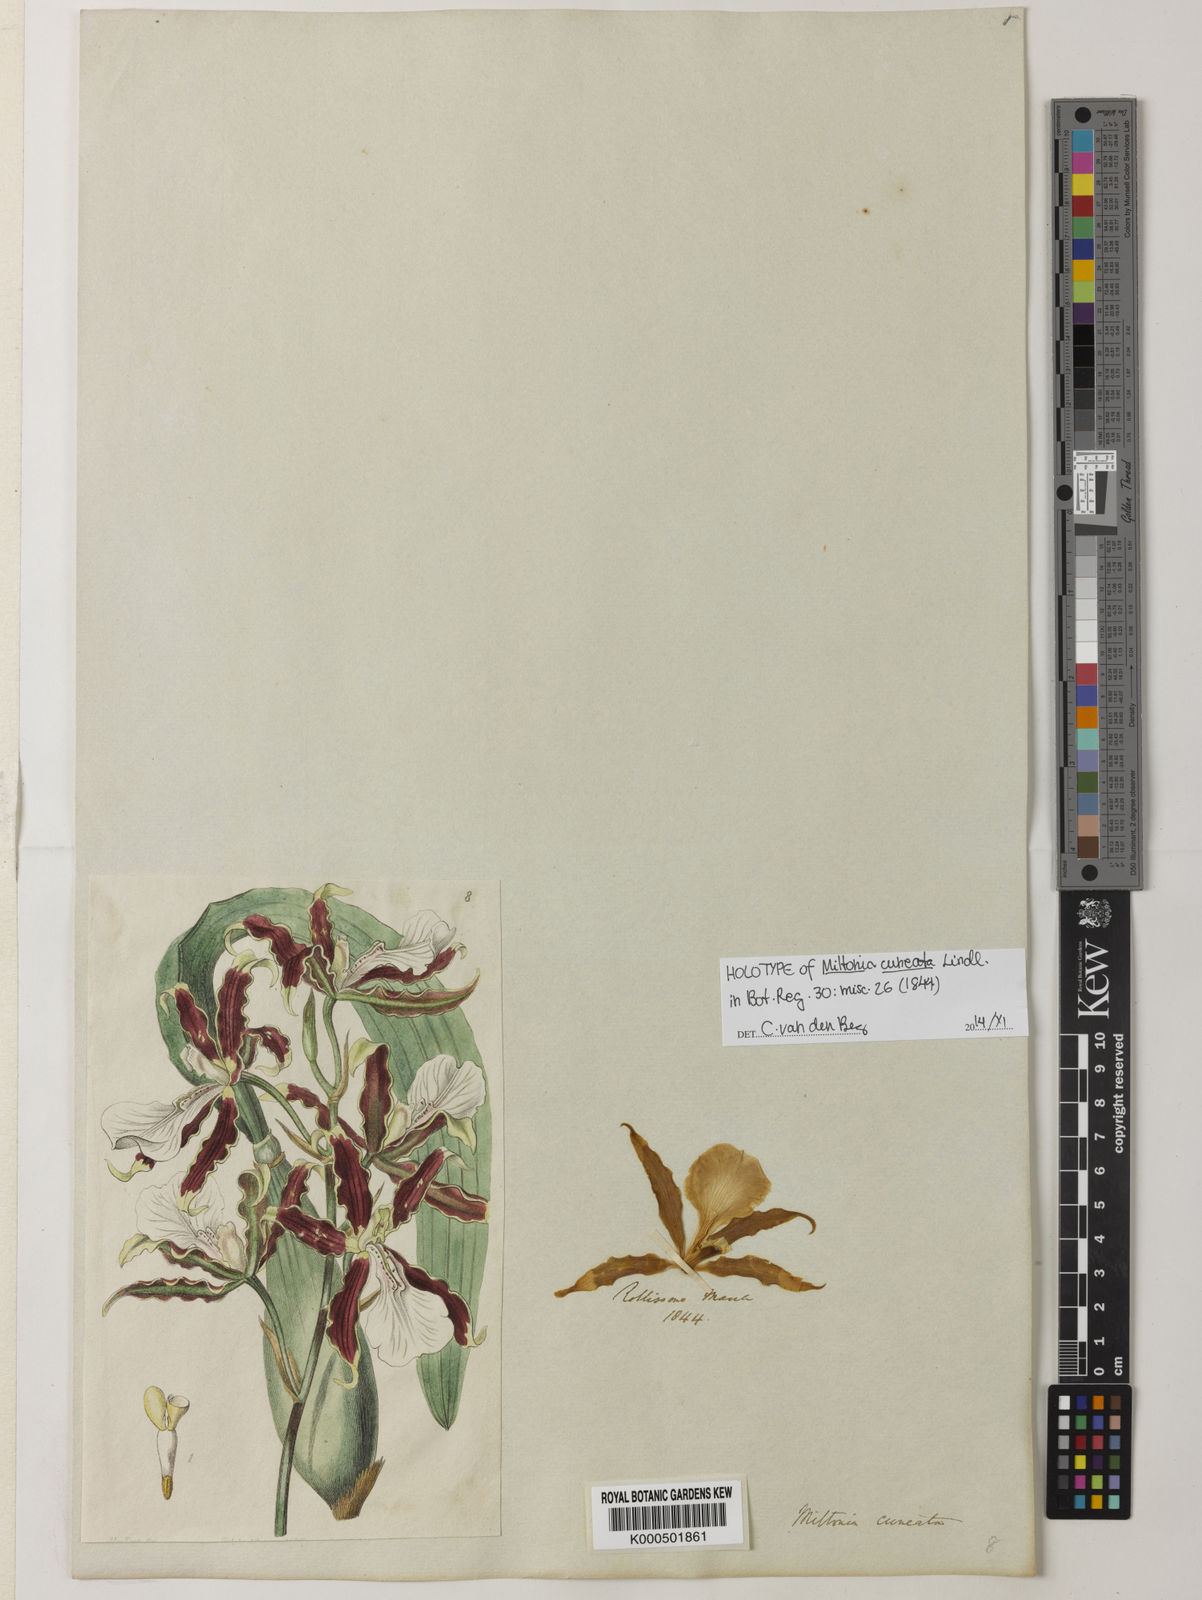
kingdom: Plantae
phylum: Tracheophyta
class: Liliopsida
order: Asparagales
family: Orchidaceae
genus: Miltonia
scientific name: Miltonia cuneata
